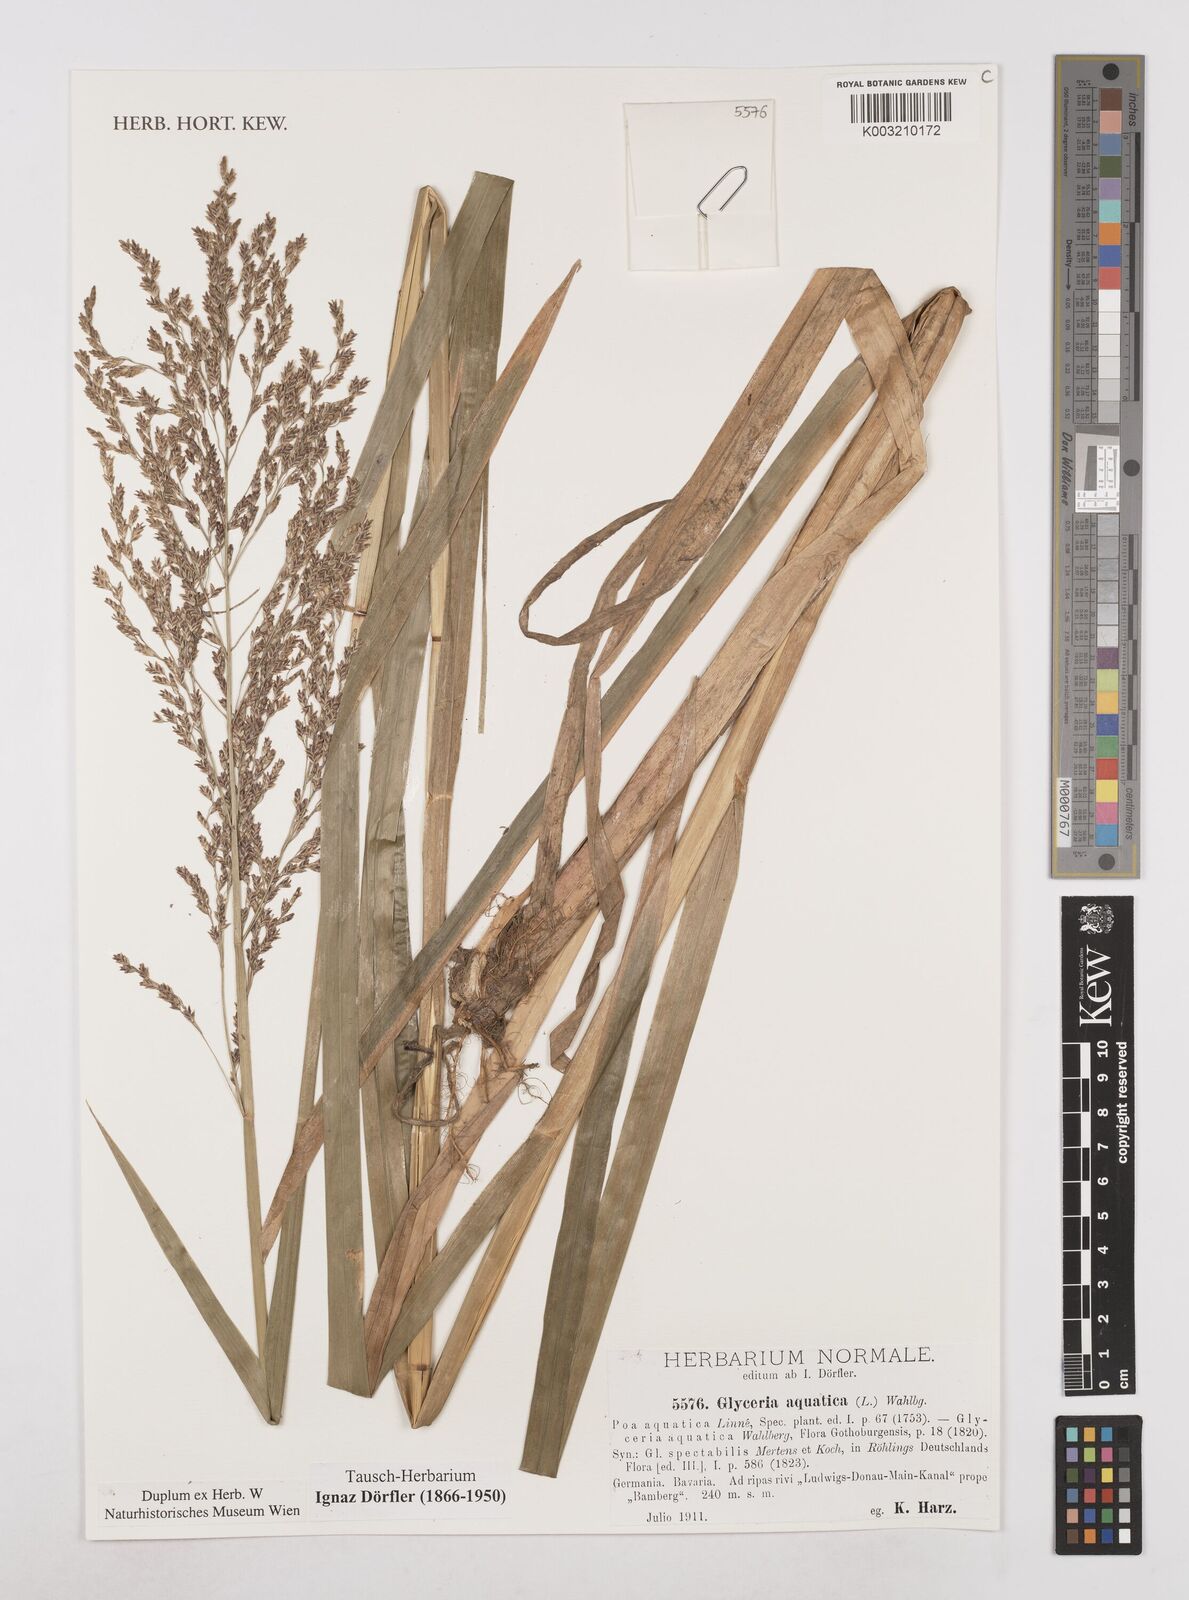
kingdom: Plantae
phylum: Tracheophyta
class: Liliopsida
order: Poales
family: Poaceae
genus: Glyceria
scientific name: Glyceria maxima
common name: Reed mannagrass
